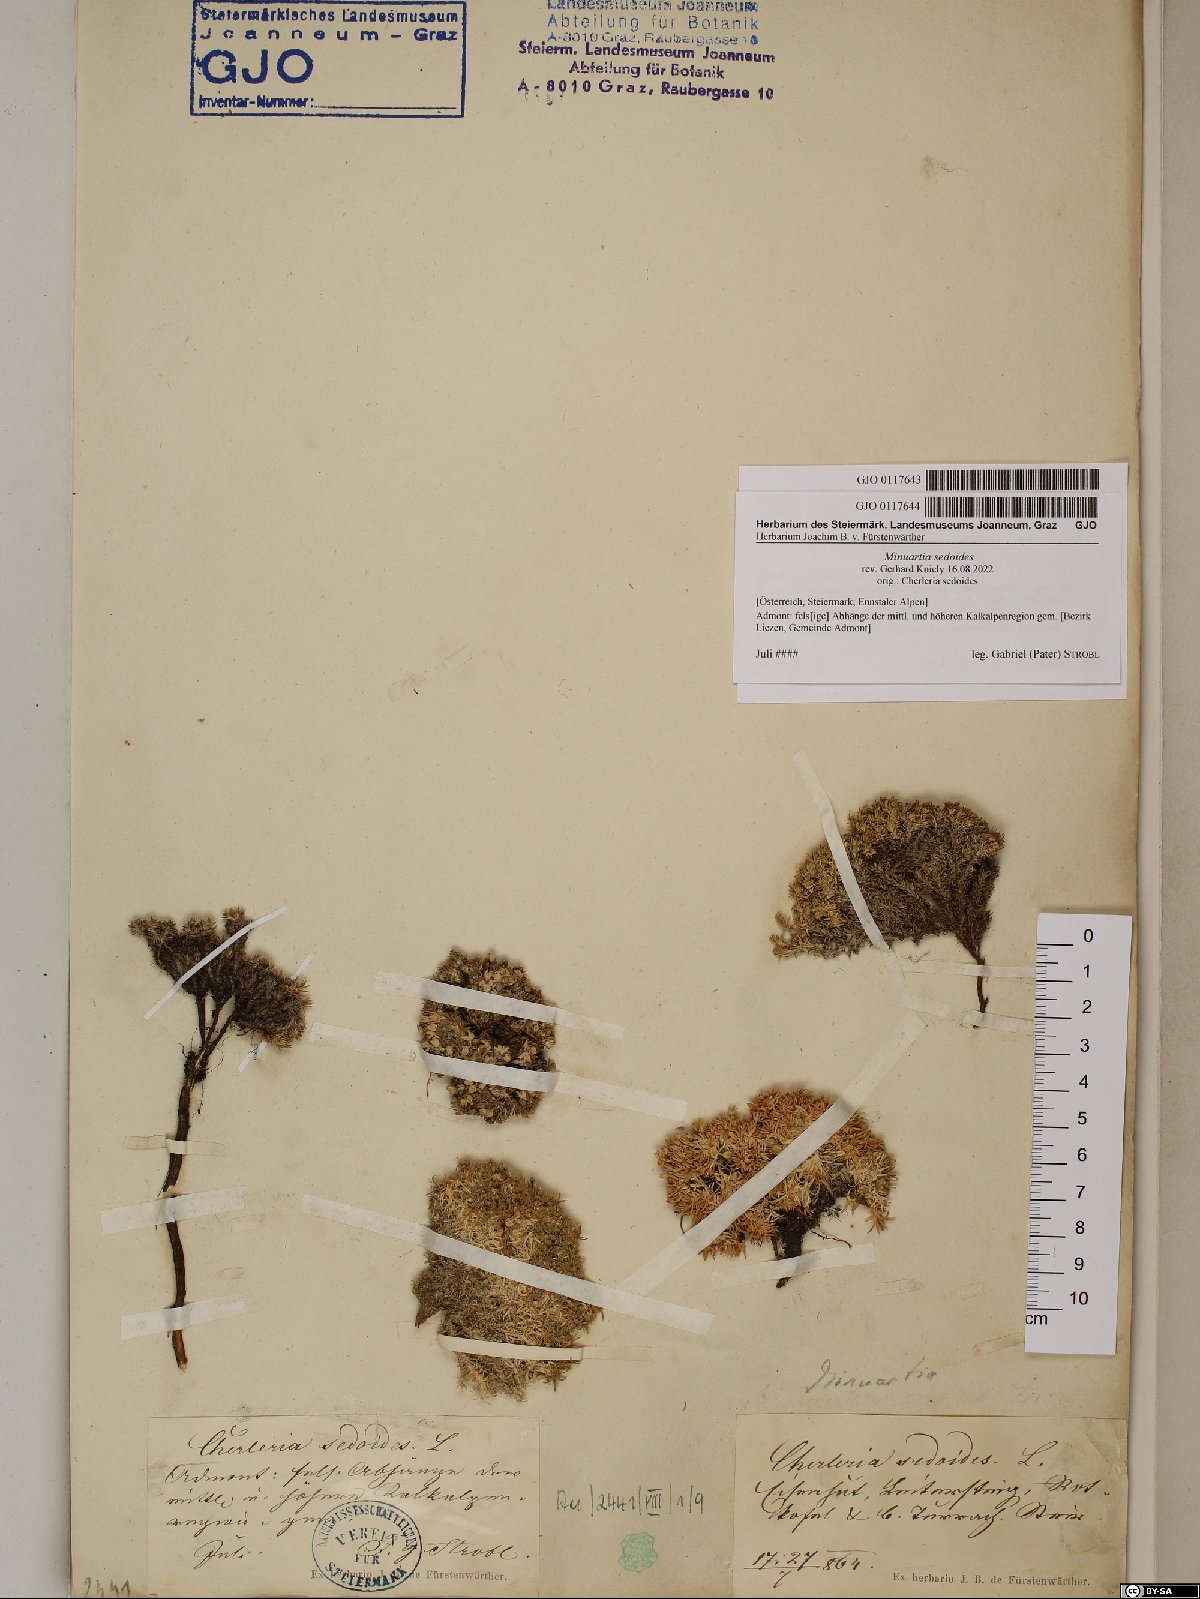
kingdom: Plantae
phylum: Tracheophyta
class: Magnoliopsida
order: Caryophyllales
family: Caryophyllaceae
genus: Cherleria
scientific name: Cherleria sedoides
